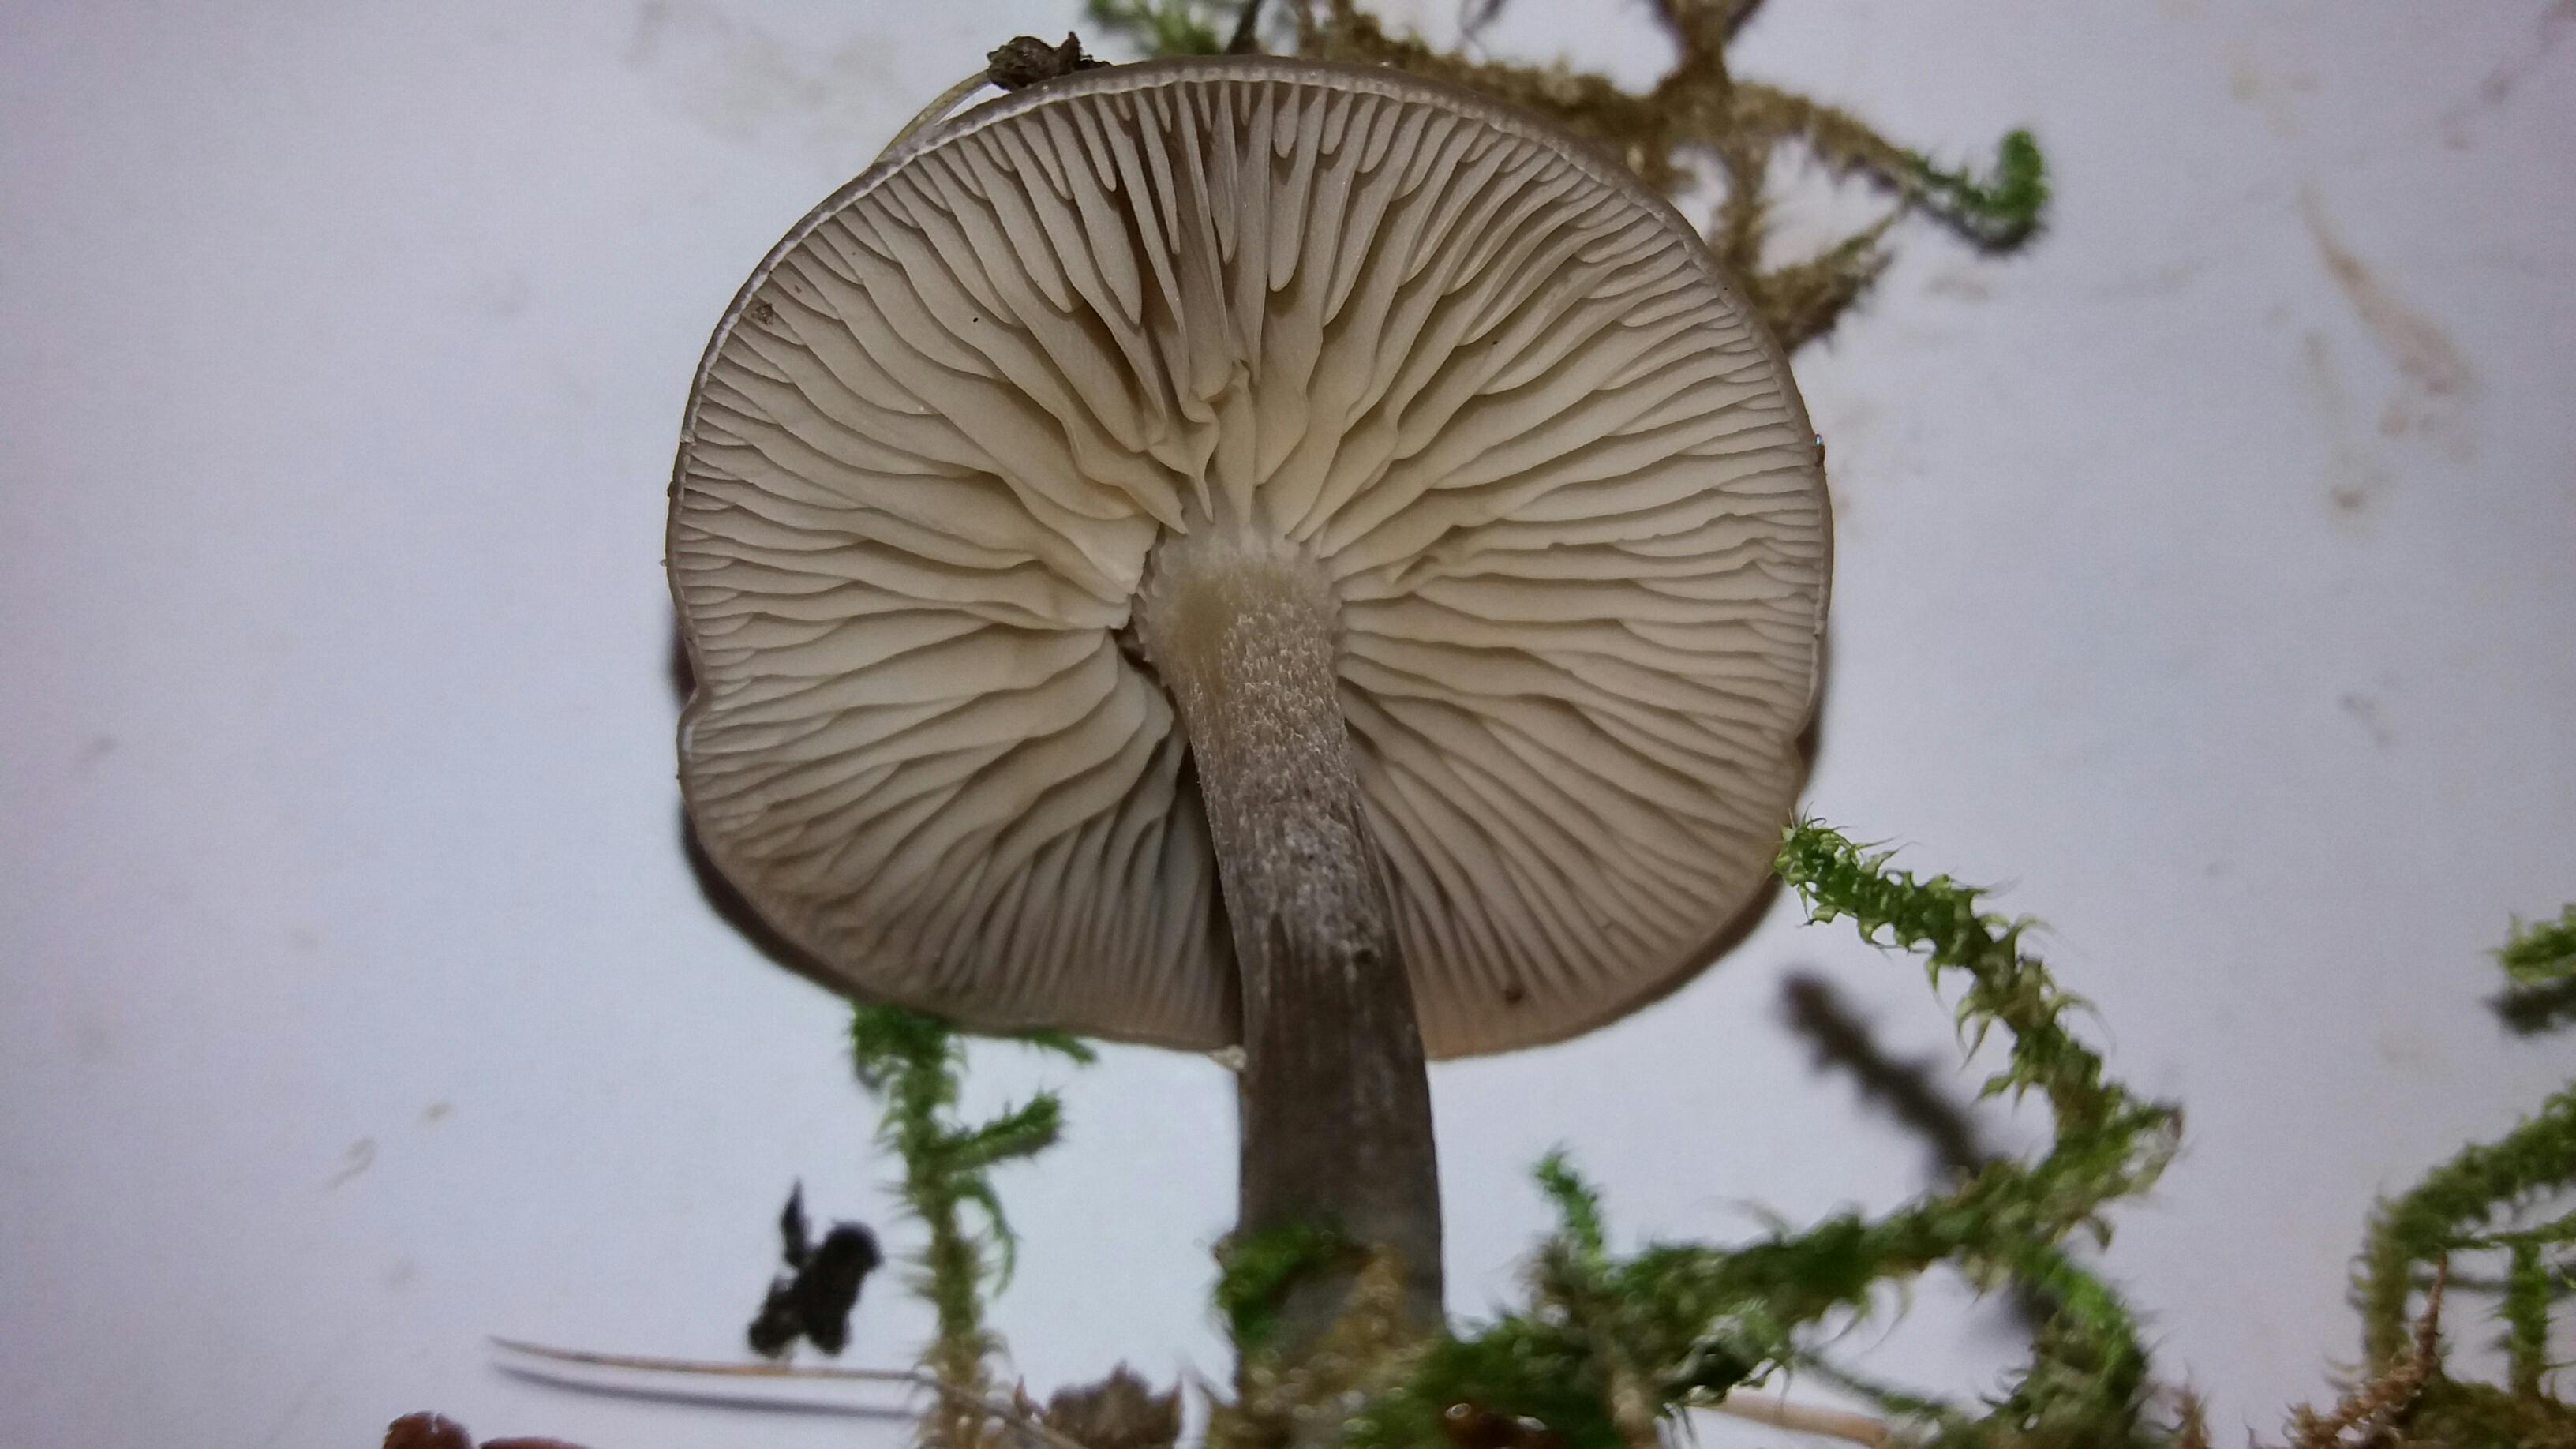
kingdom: Fungi
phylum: Basidiomycota
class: Agaricomycetes
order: Agaricales
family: Tricholomataceae
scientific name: Tricholomataceae
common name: ridderhatfamilien
